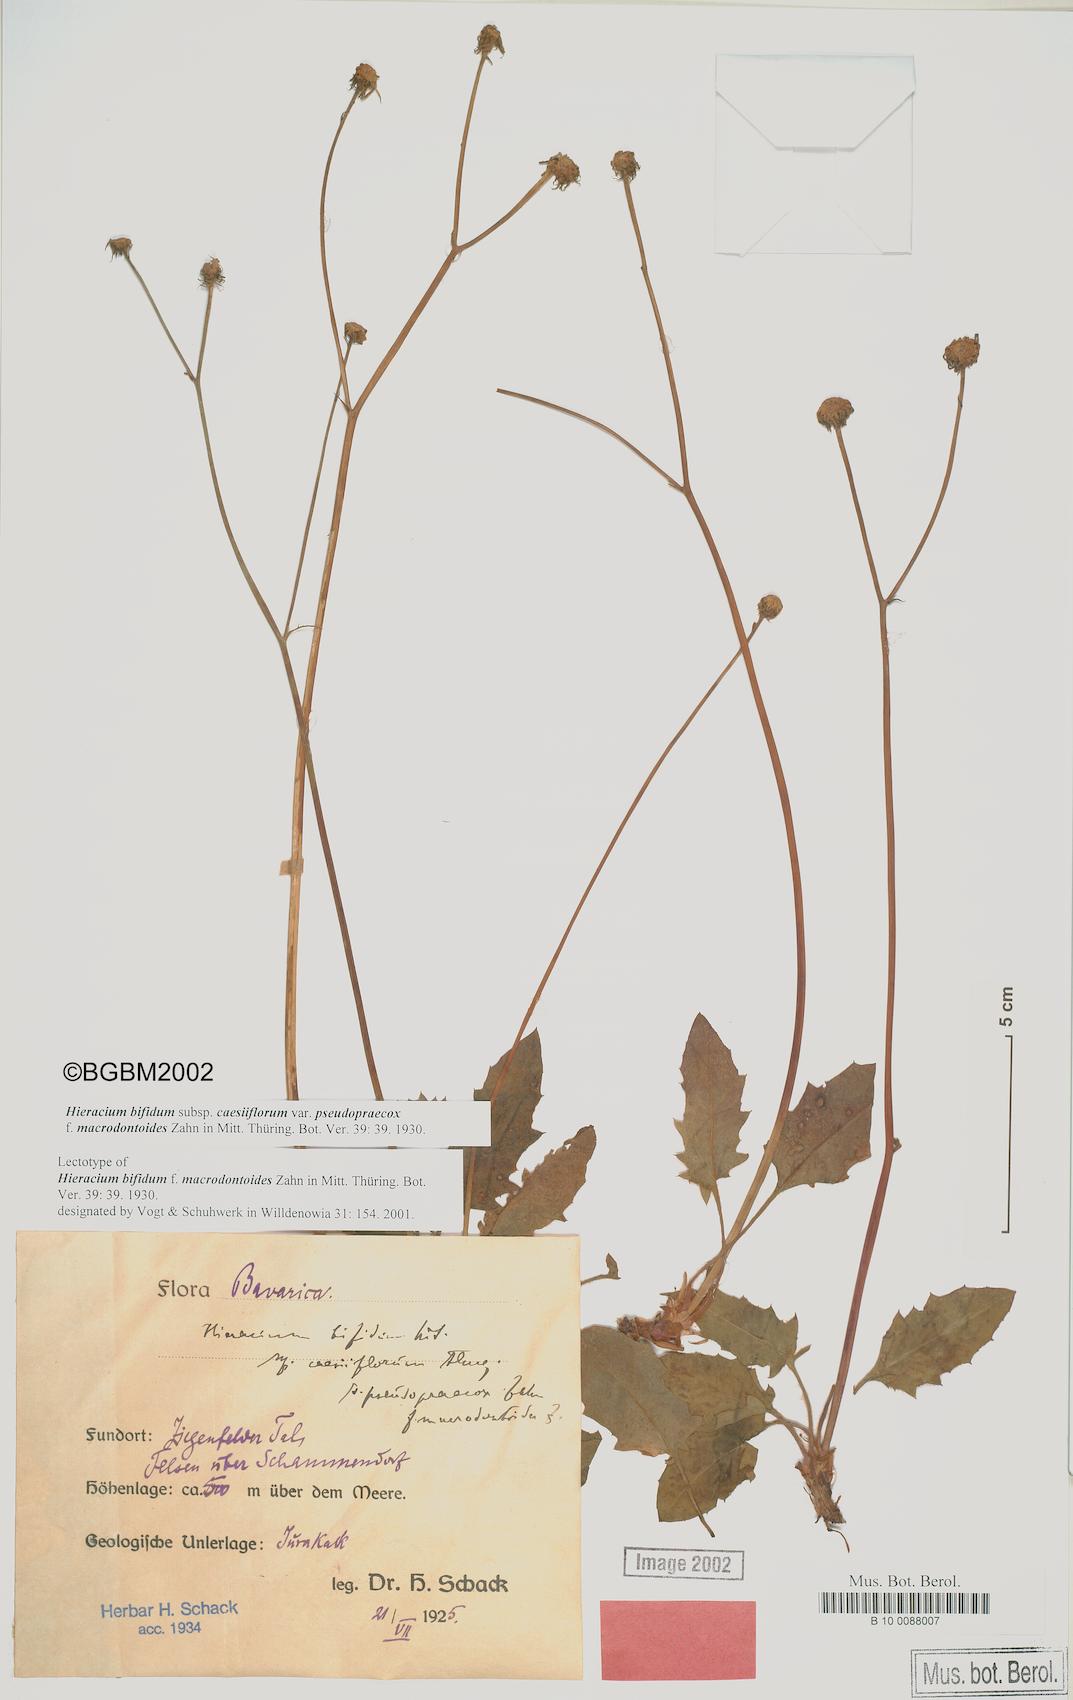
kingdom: Plantae
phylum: Tracheophyta
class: Magnoliopsida
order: Asterales
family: Asteraceae
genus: Hieracium
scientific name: Hieracium bifidum
